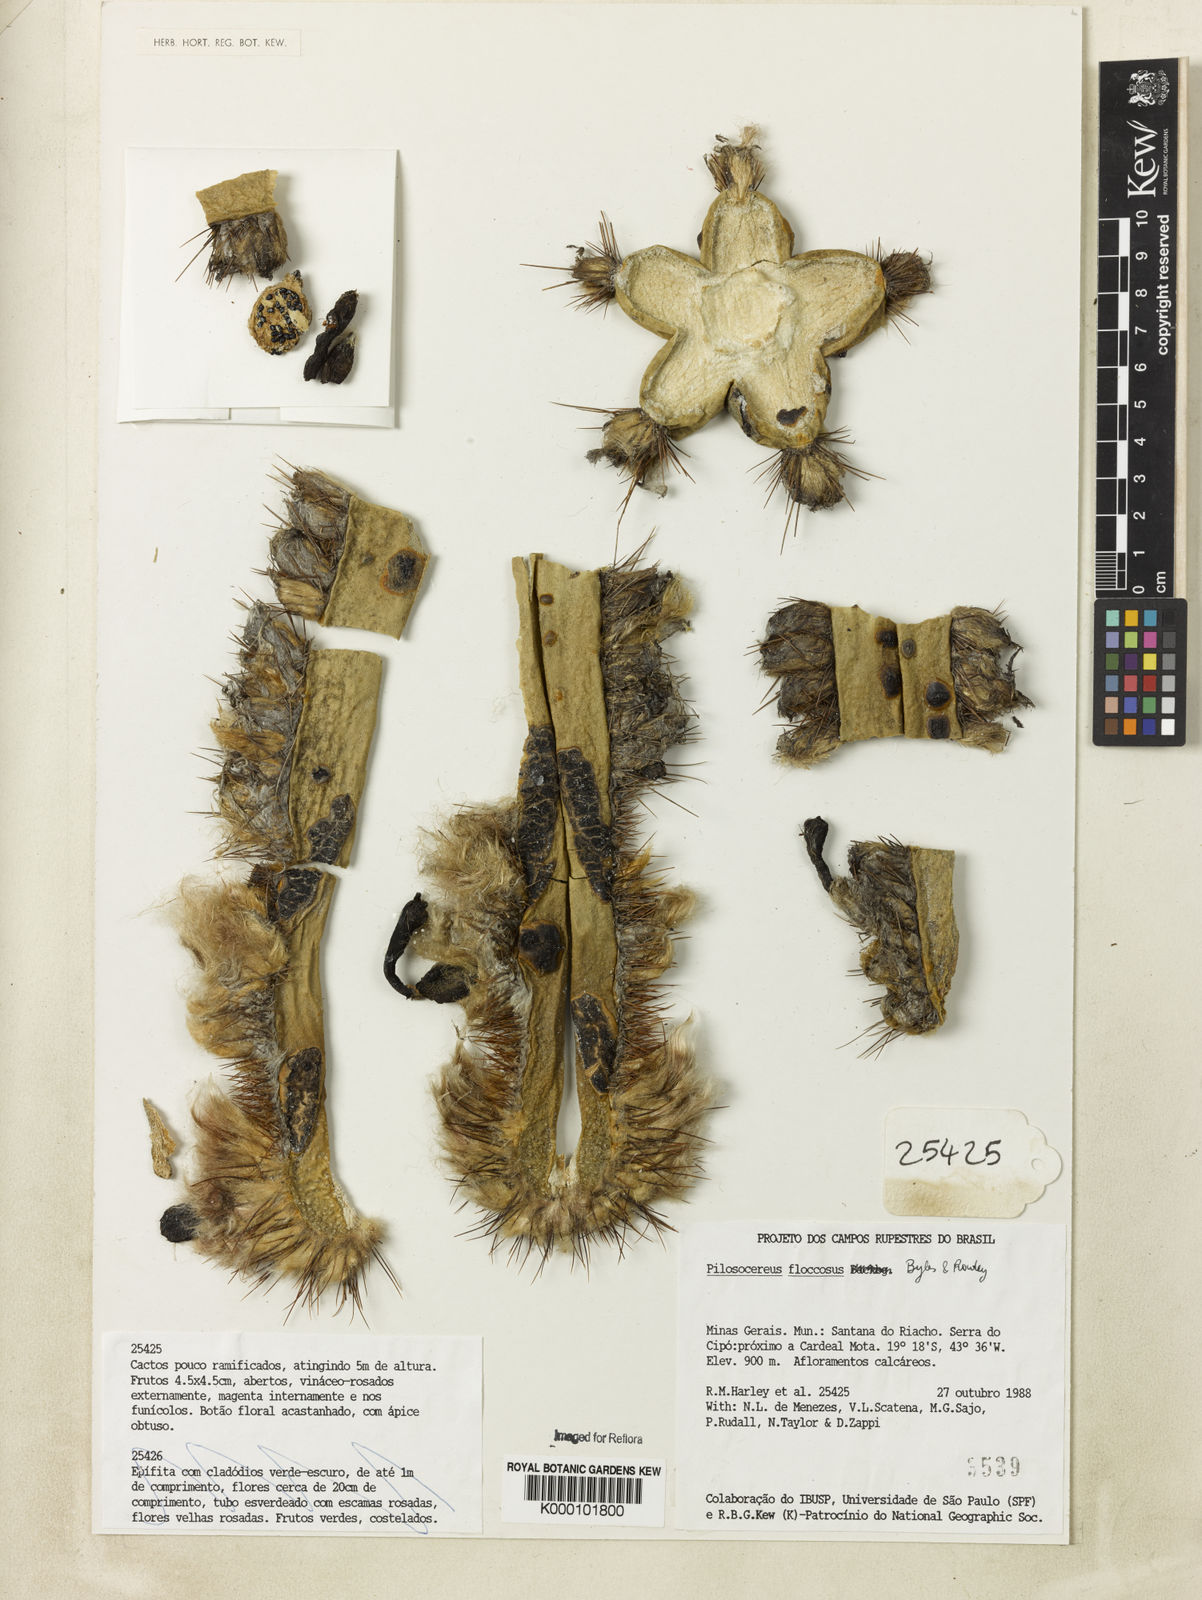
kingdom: Plantae
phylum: Tracheophyta
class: Magnoliopsida
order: Caryophyllales
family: Cactaceae
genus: Pilosocereus
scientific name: Pilosocereus floccosus
